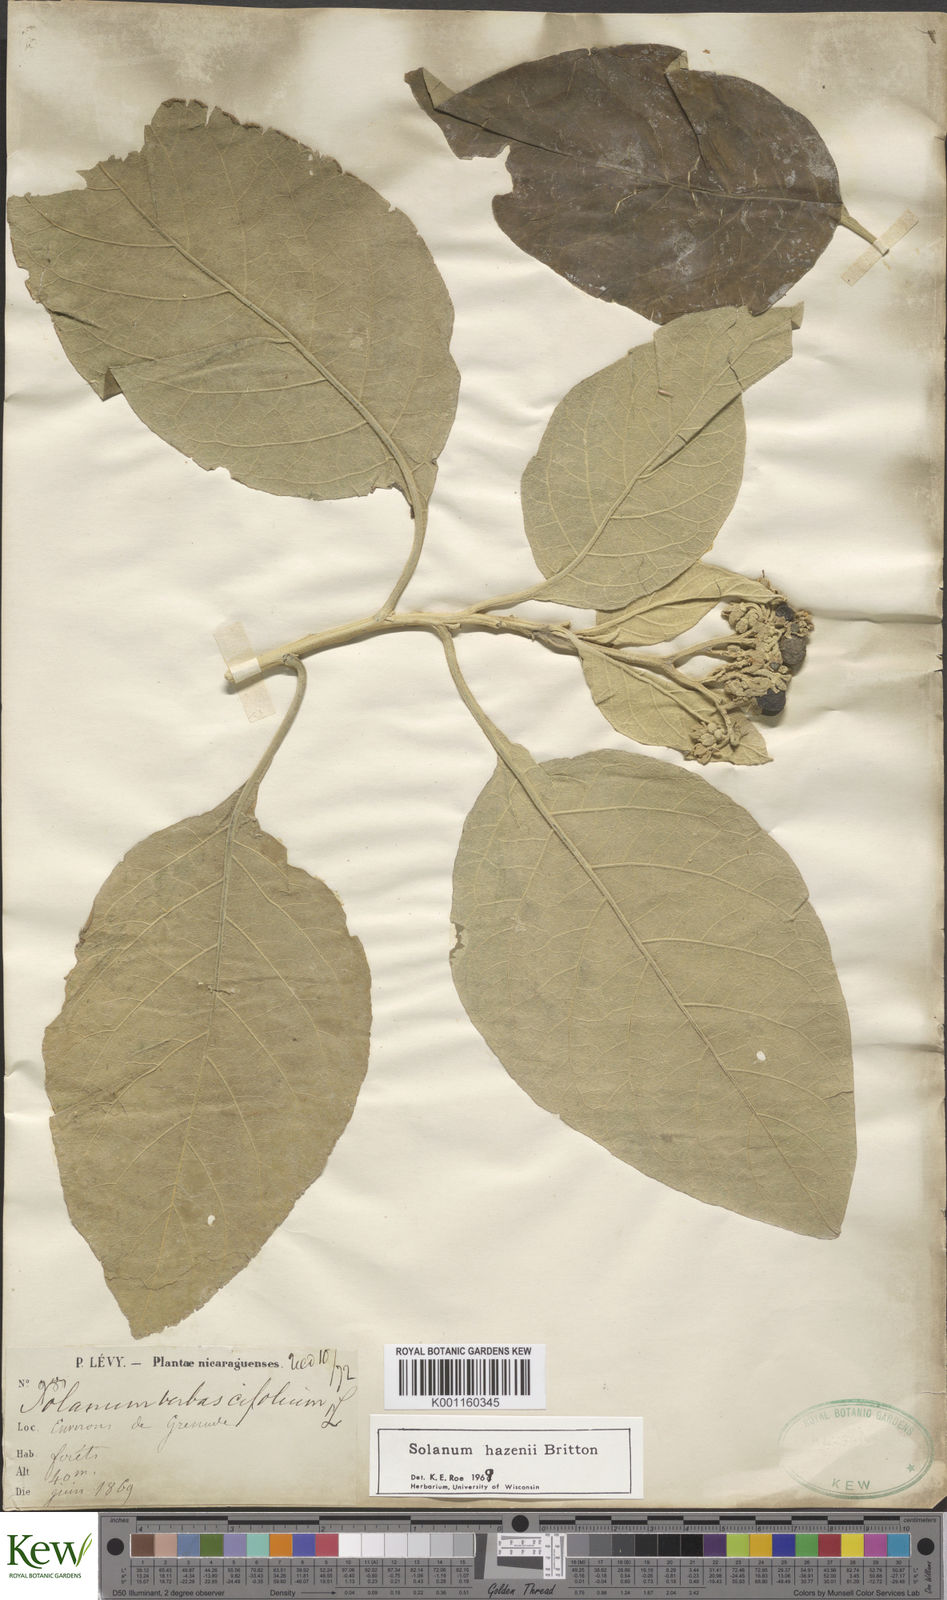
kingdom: Plantae
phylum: Tracheophyta
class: Magnoliopsida
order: Solanales
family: Solanaceae
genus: Solanum
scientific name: Solanum hazenii
